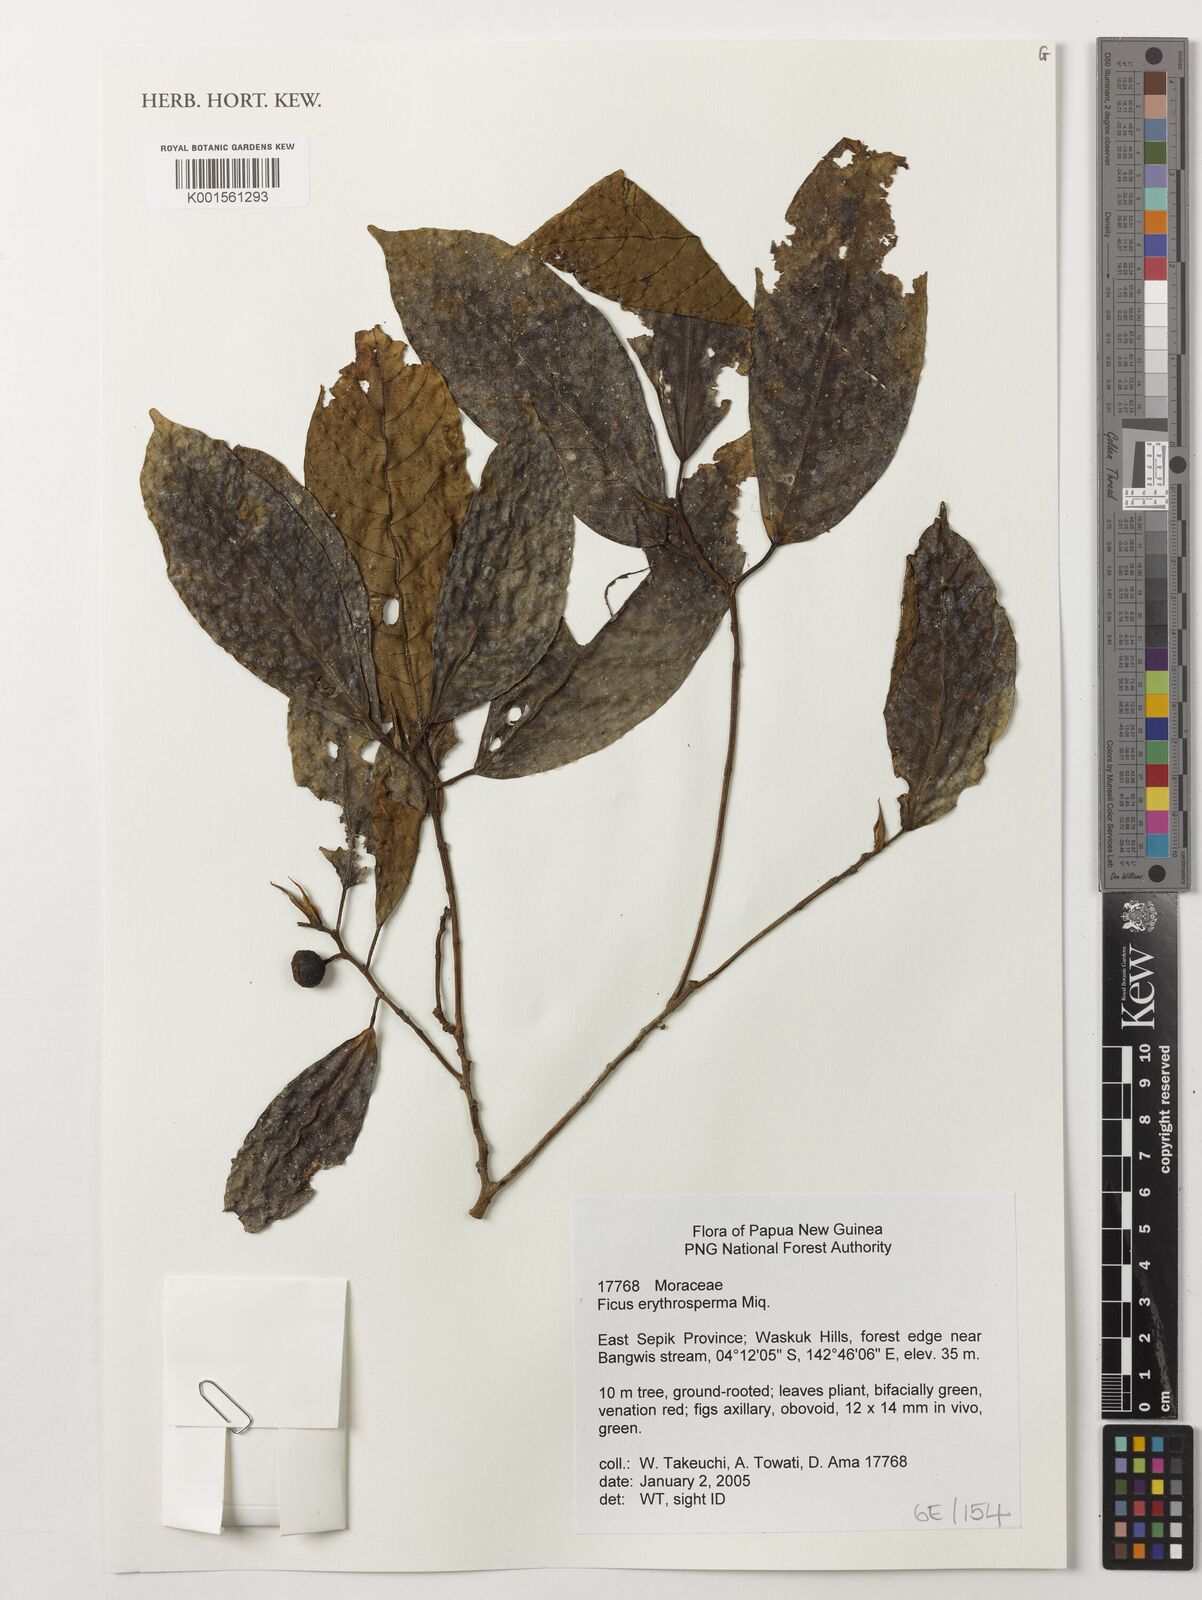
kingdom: Plantae
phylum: Tracheophyta
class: Magnoliopsida
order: Rosales
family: Moraceae
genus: Ficus
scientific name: Ficus erythrosperma
